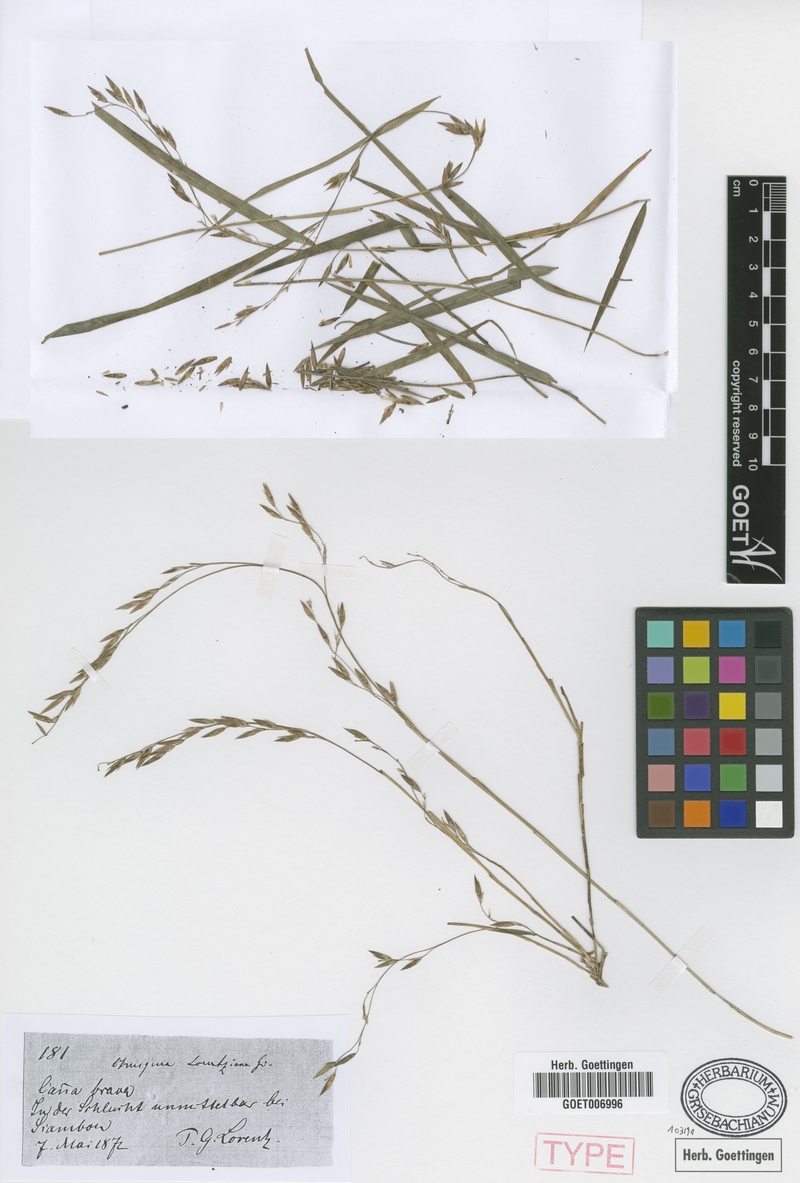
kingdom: Plantae
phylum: Tracheophyta
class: Liliopsida
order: Poales
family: Poaceae
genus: Chusquea
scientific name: Chusquea lorentziana
